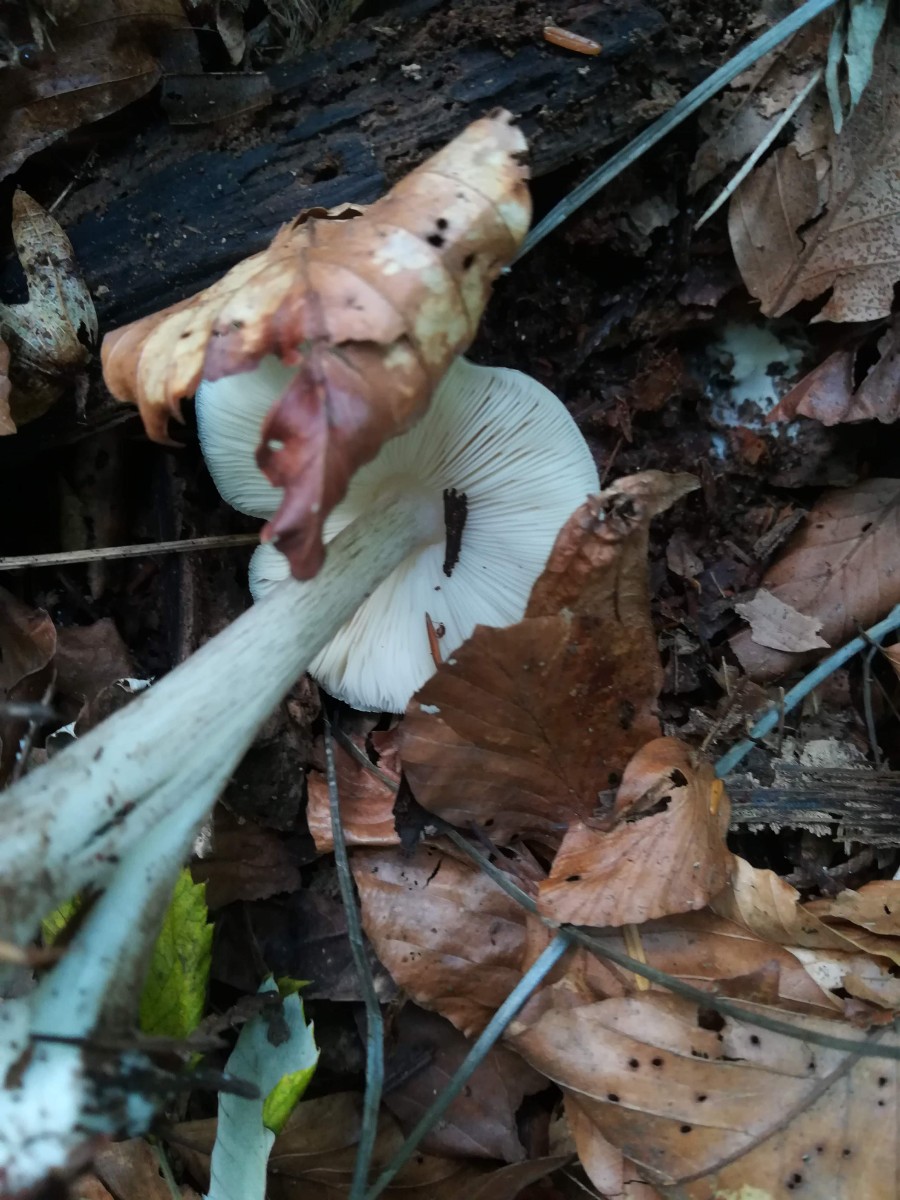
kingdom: Fungi
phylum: Basidiomycota
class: Agaricomycetes
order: Agaricales
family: Pluteaceae
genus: Pluteus
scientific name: Pluteus cervinus
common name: sodfarvet skærmhat
